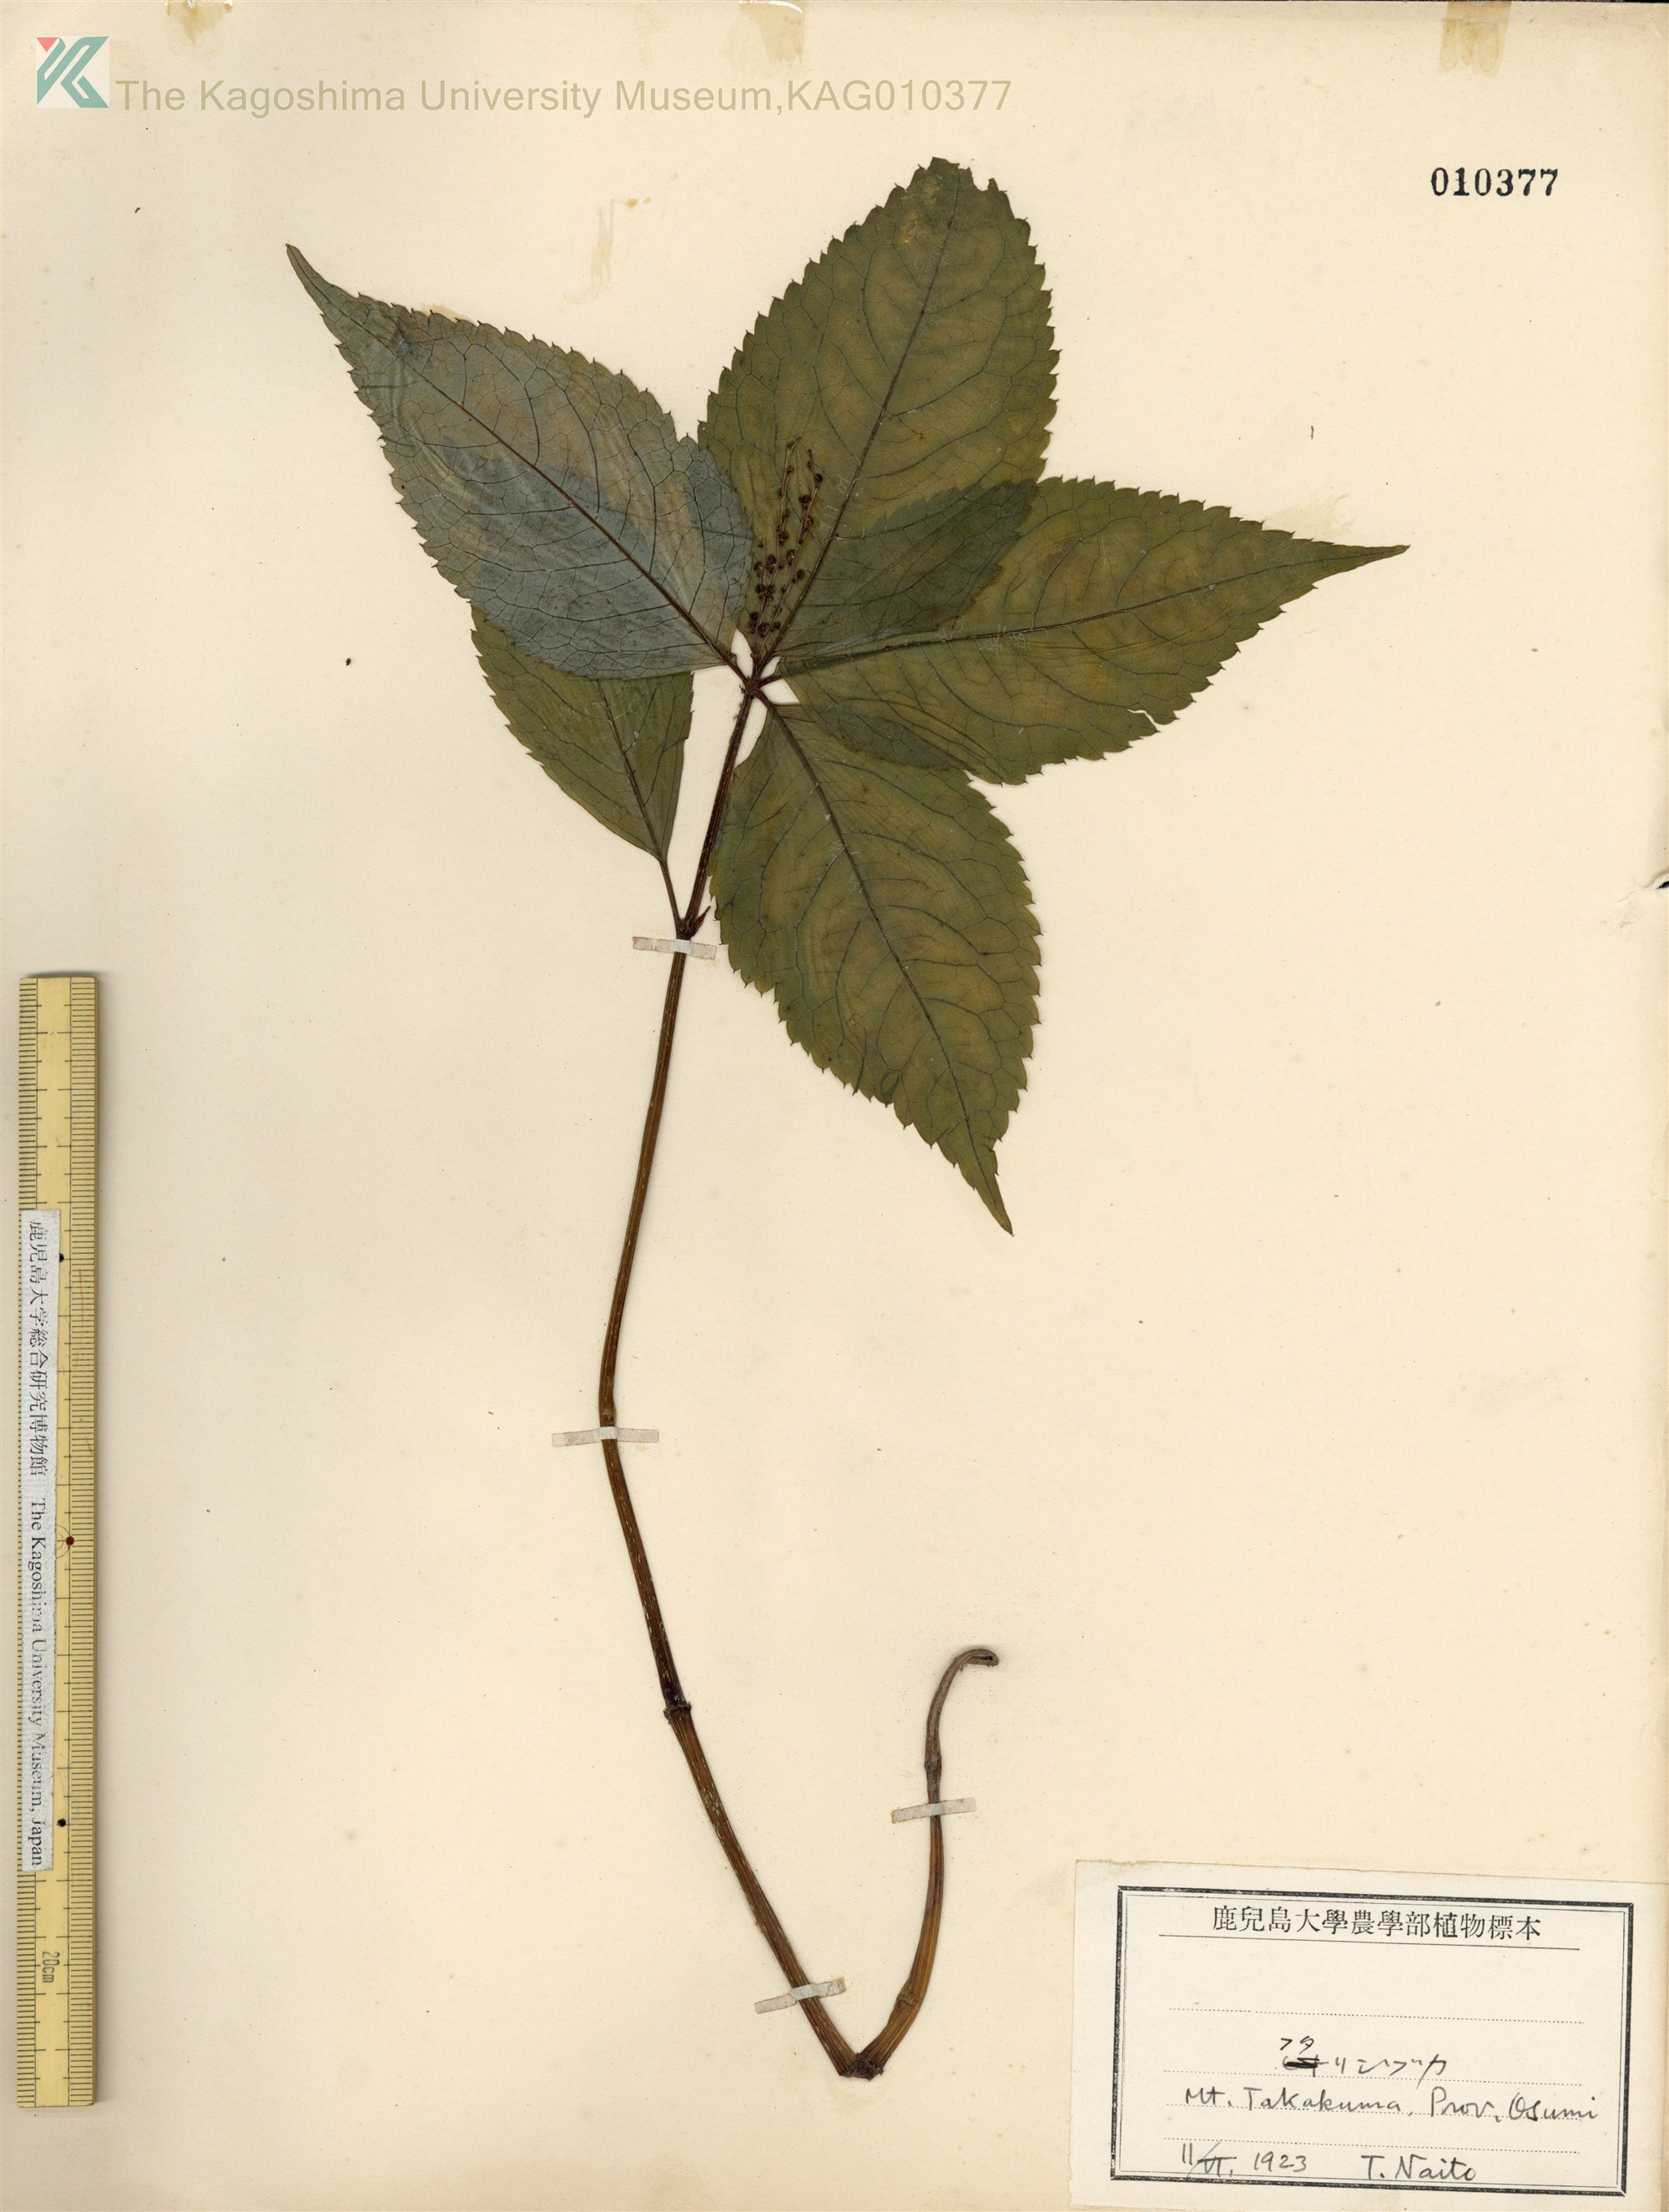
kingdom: Plantae
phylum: Tracheophyta
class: Magnoliopsida
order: Chloranthales
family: Chloranthaceae
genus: Chloranthus
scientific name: Chloranthus serratus
